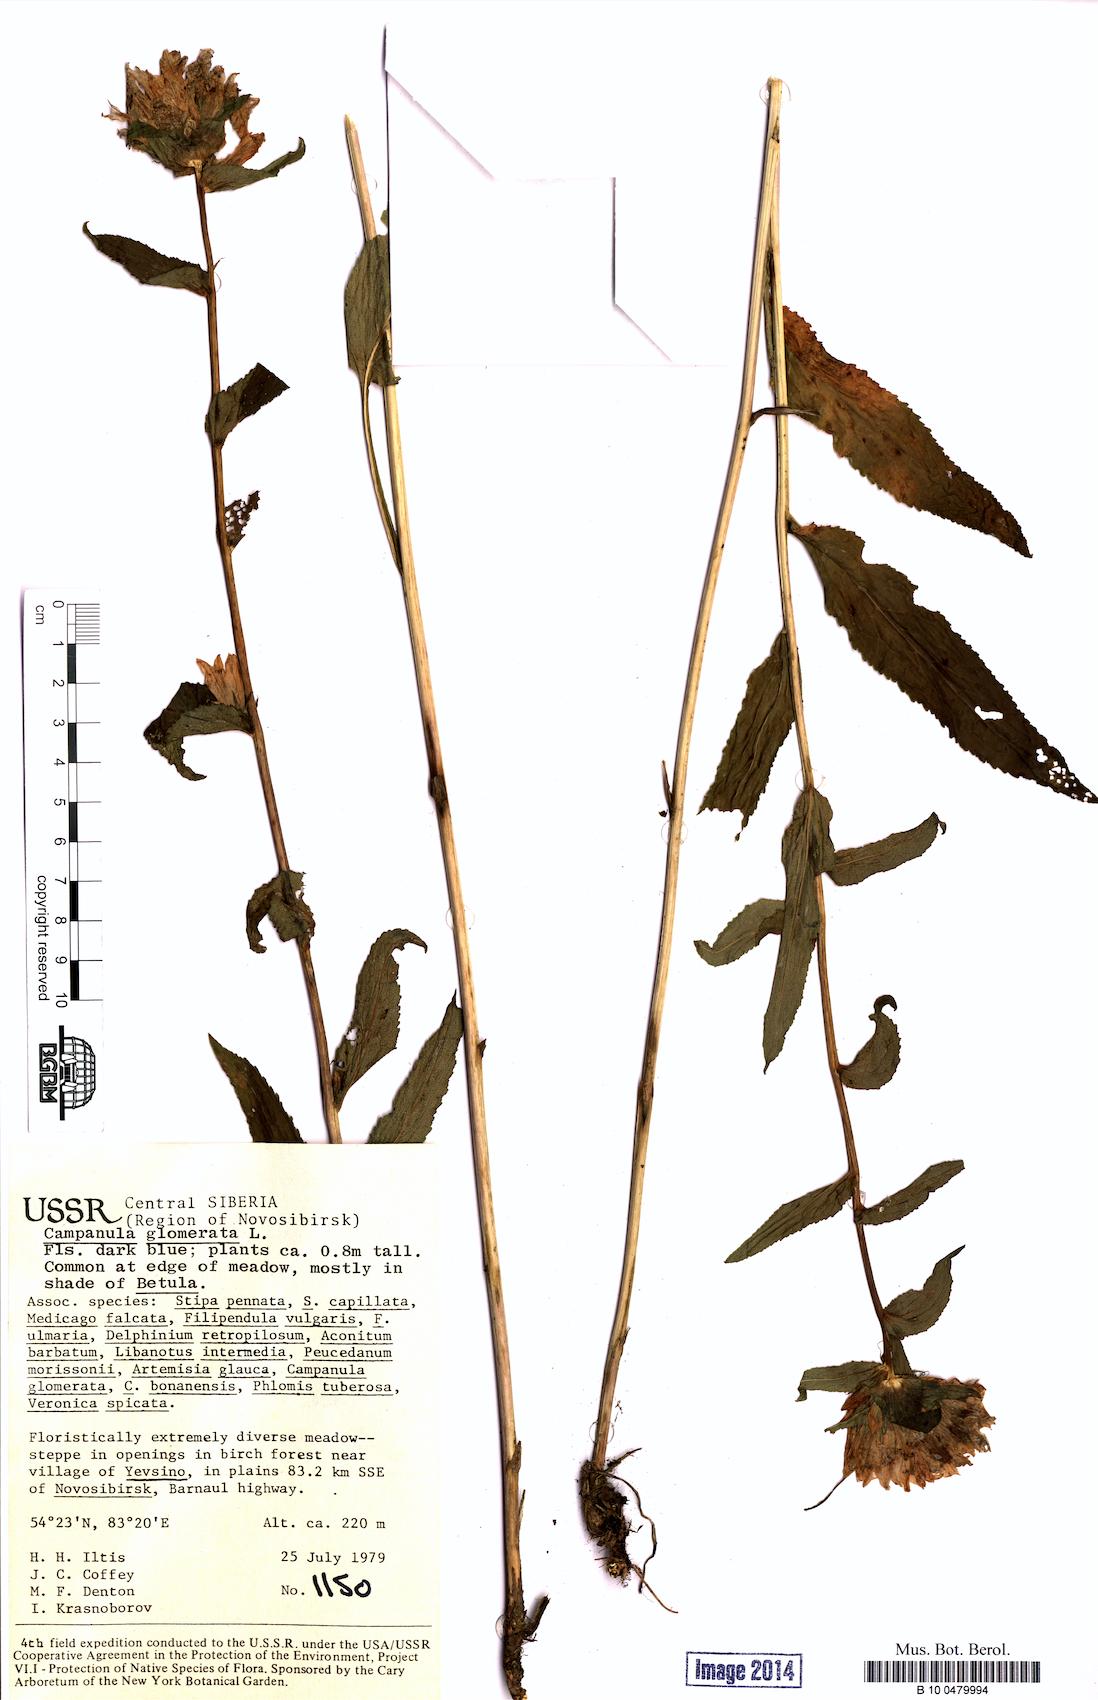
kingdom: Plantae
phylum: Tracheophyta
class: Magnoliopsida
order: Asterales
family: Campanulaceae
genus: Campanula
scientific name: Campanula glomerata
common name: Clustered bellflower
